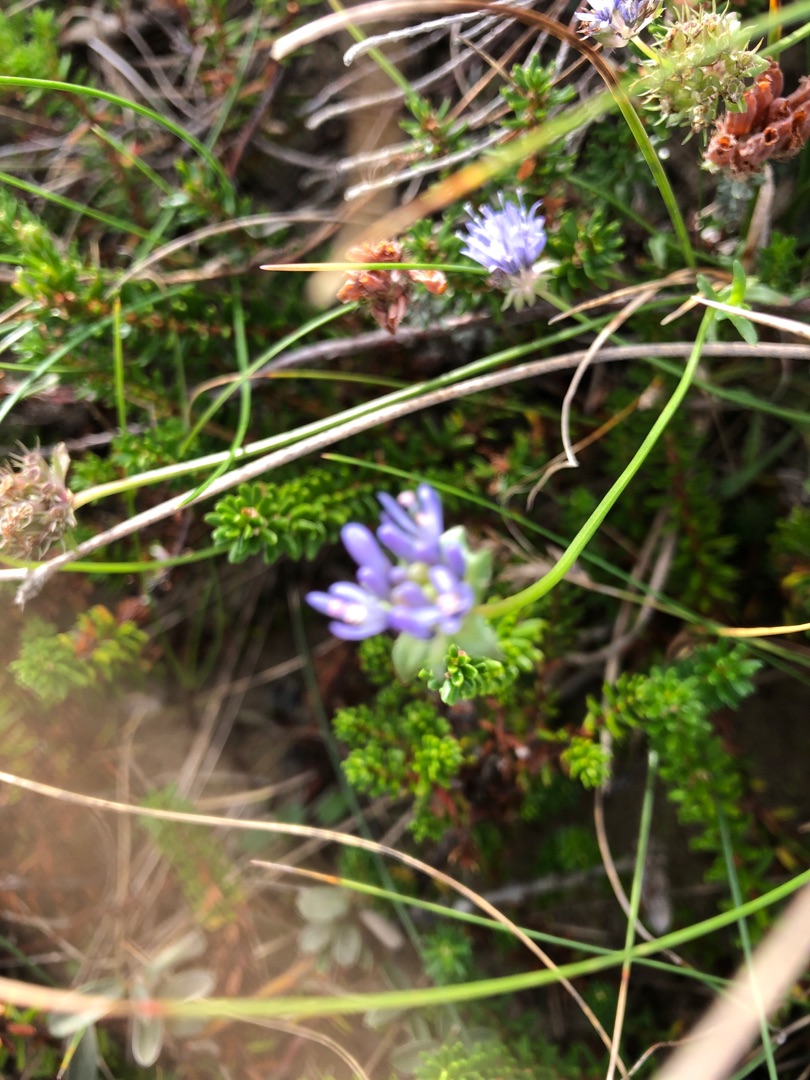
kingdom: Plantae
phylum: Tracheophyta
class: Magnoliopsida
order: Asterales
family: Campanulaceae
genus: Jasione
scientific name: Jasione montana
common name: Blåmunke
